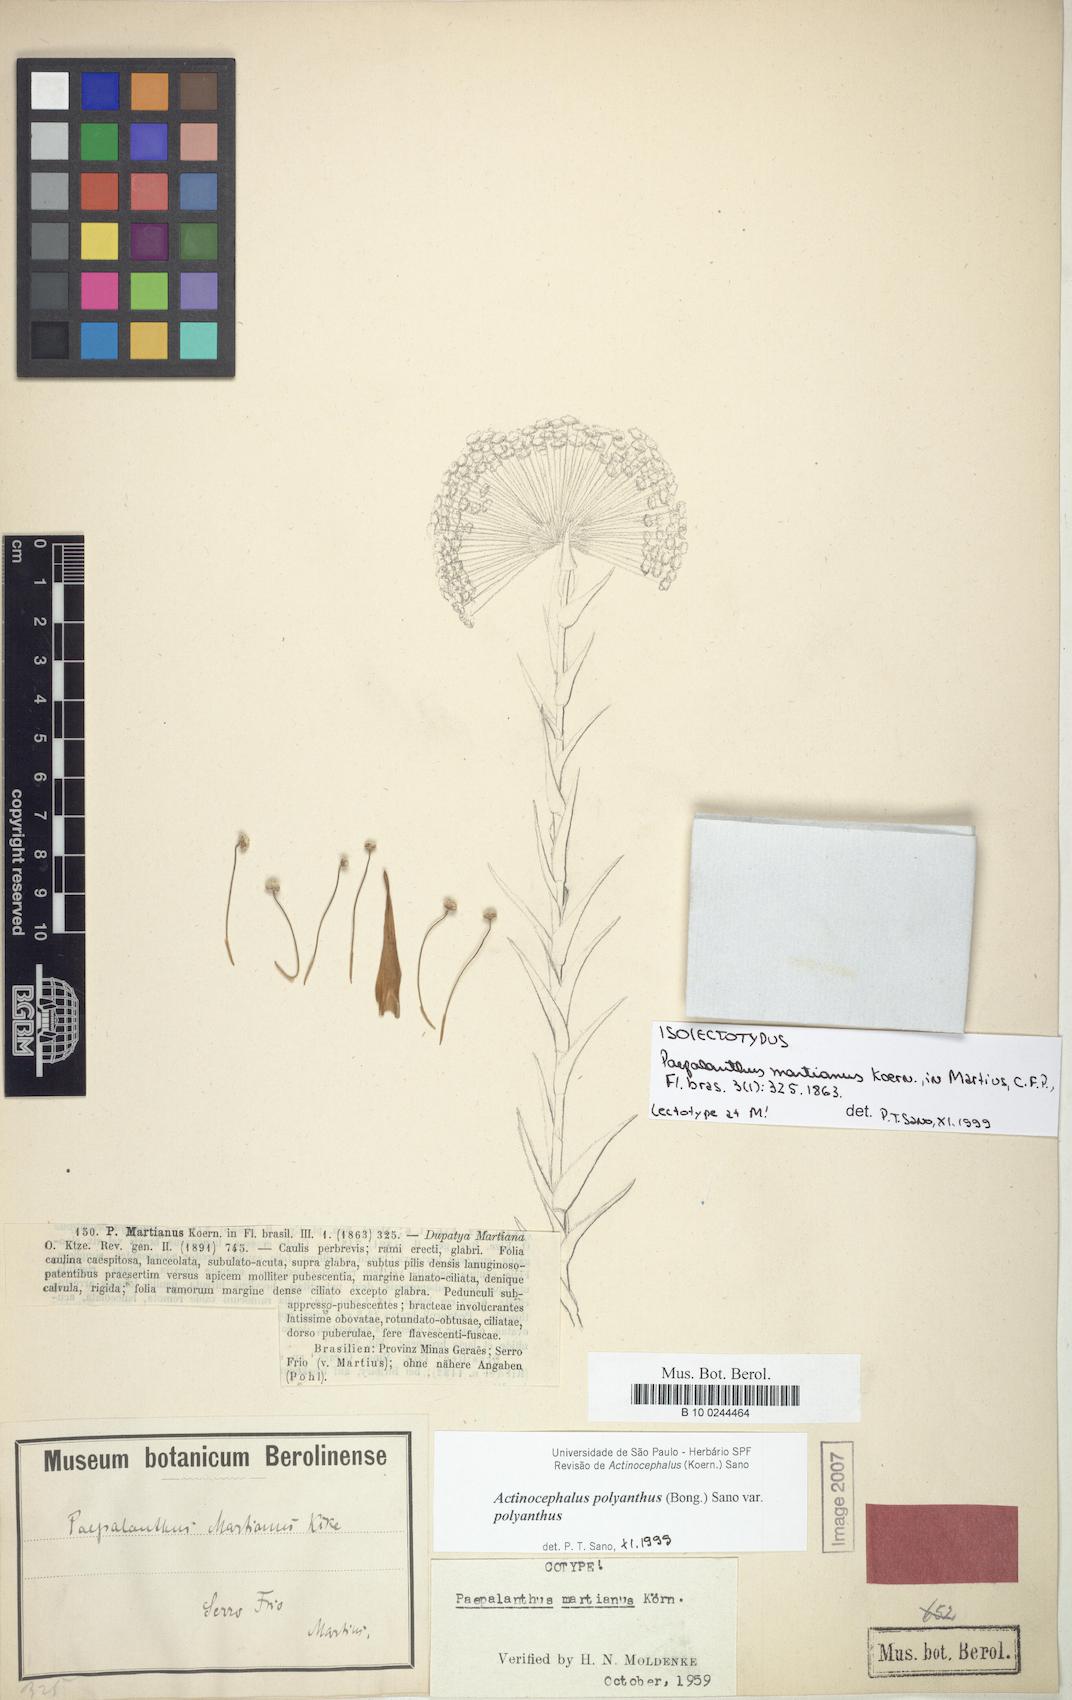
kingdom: Plantae
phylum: Tracheophyta
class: Liliopsida
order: Poales
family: Eriocaulaceae
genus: Paepalanthus
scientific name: Paepalanthus polyanthus
